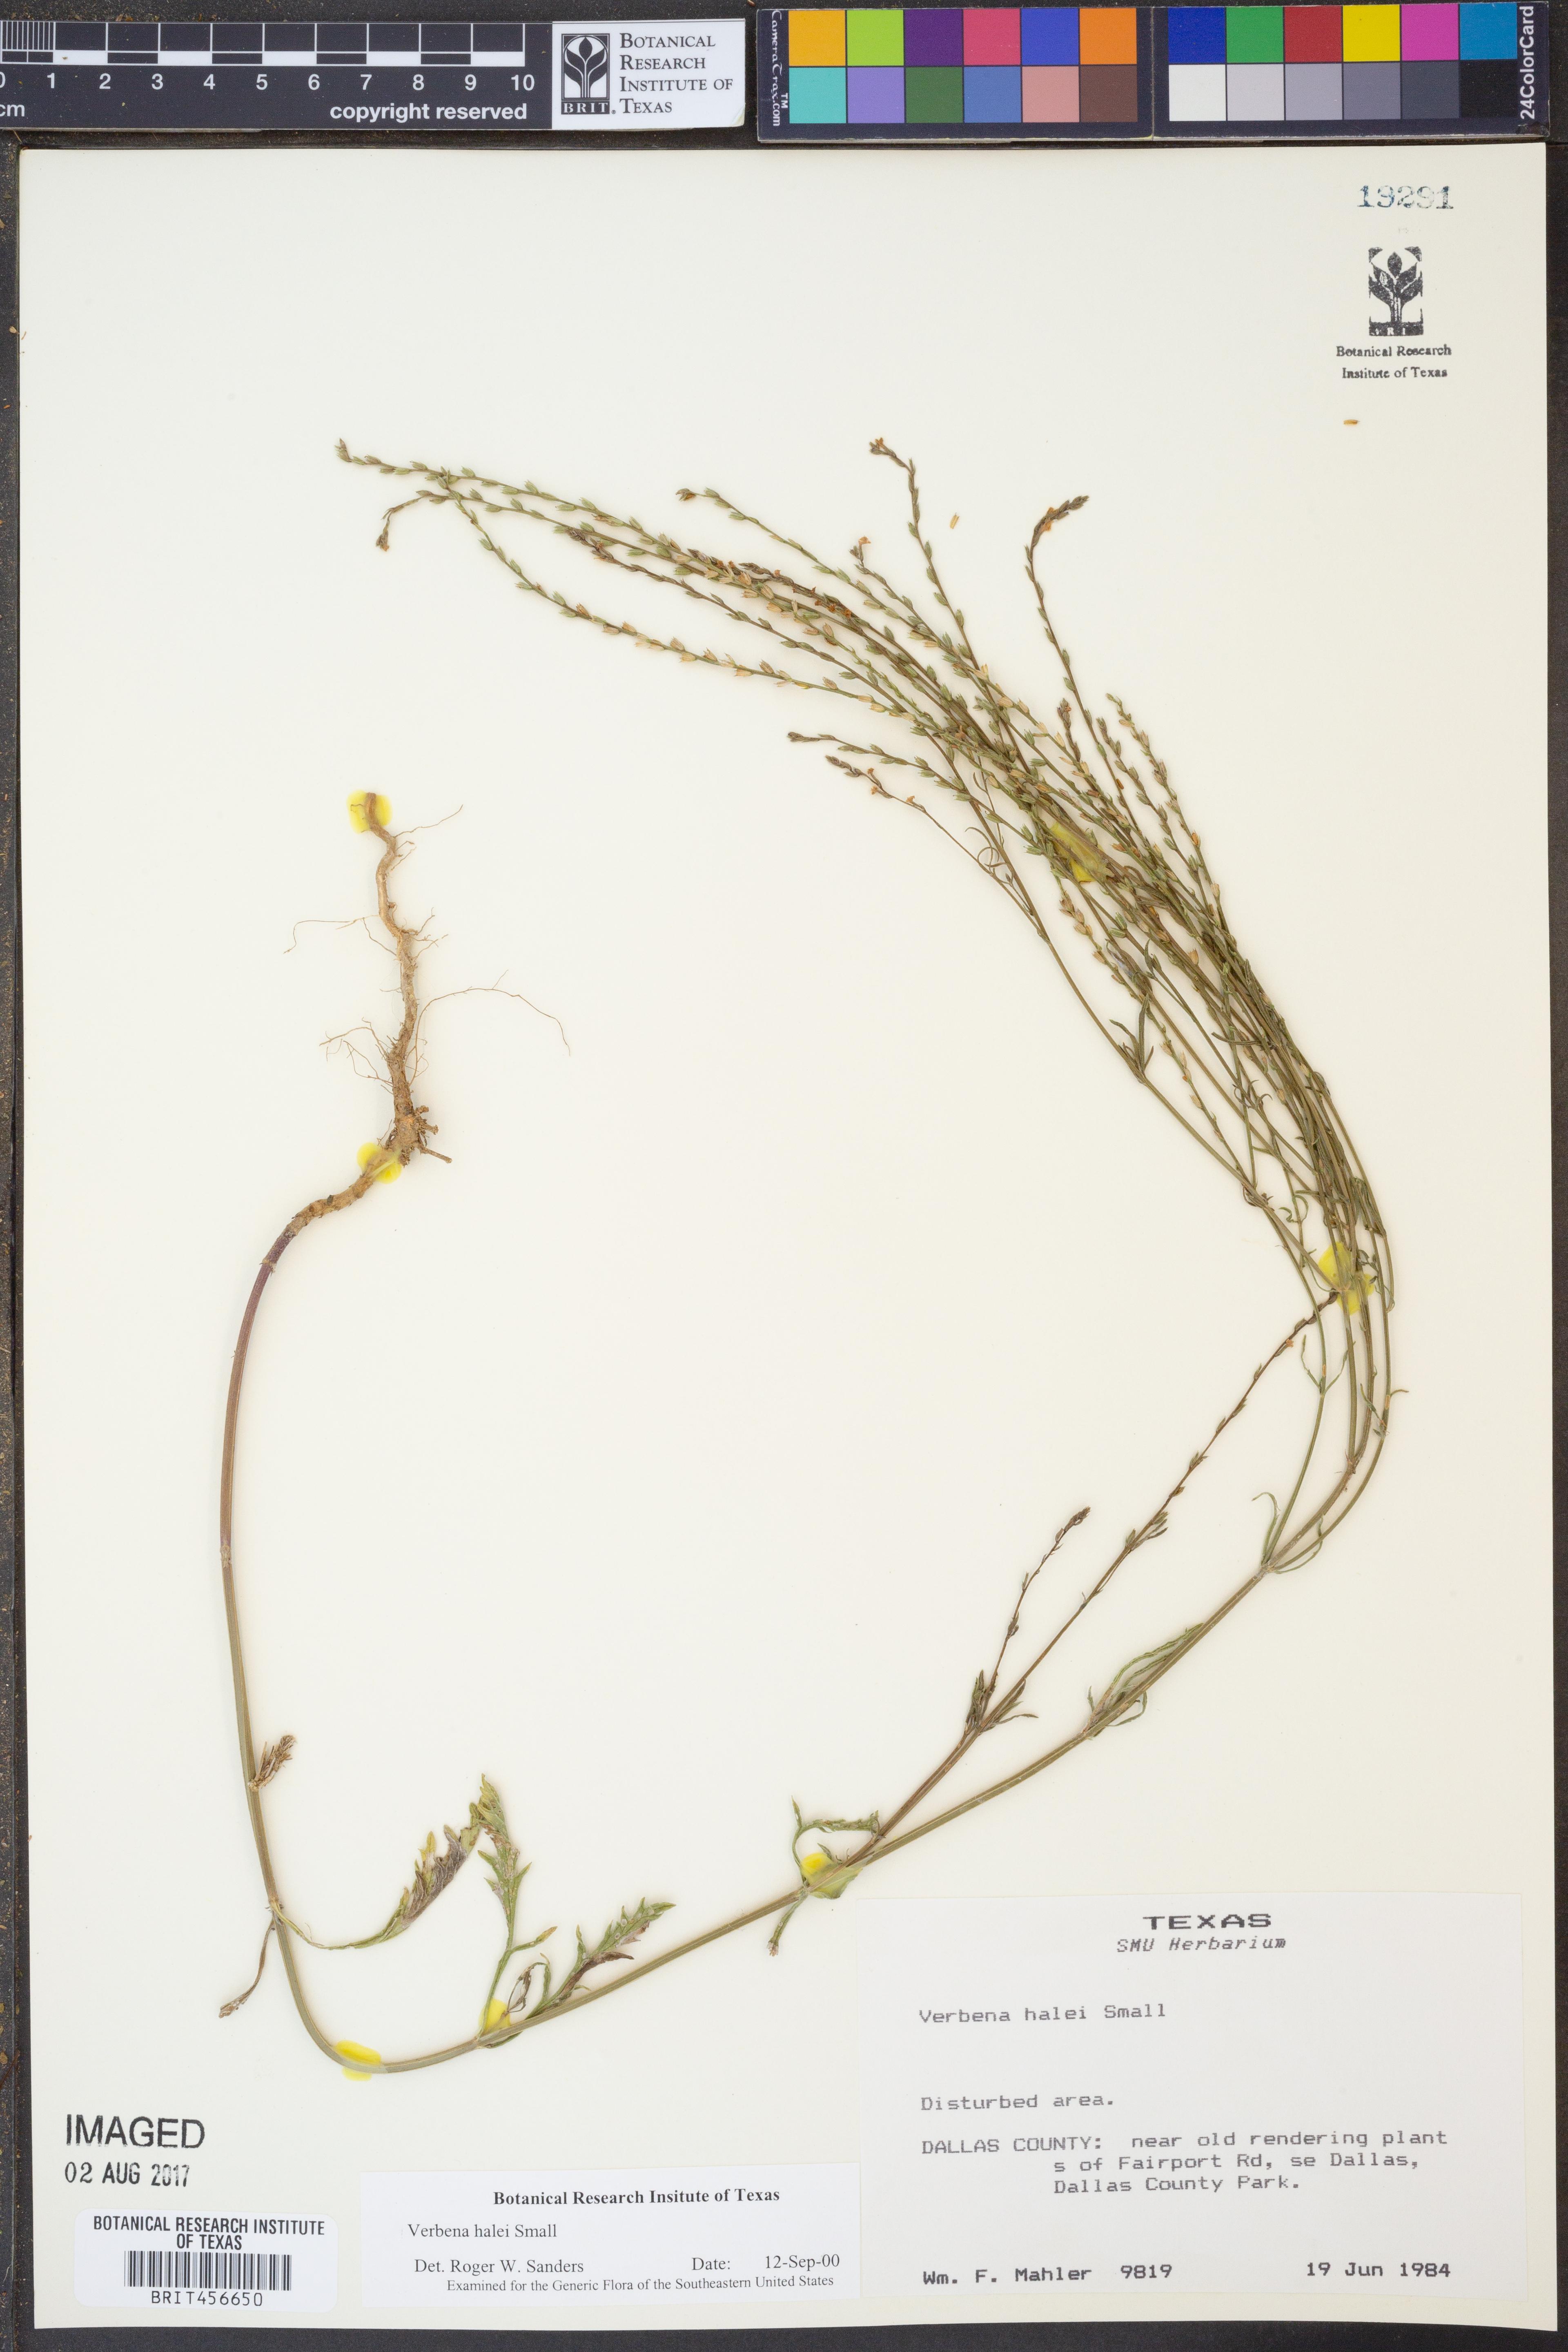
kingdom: Plantae
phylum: Tracheophyta
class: Magnoliopsida
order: Lamiales
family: Verbenaceae
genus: Verbena
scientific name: Verbena halei
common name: Texas vervain
